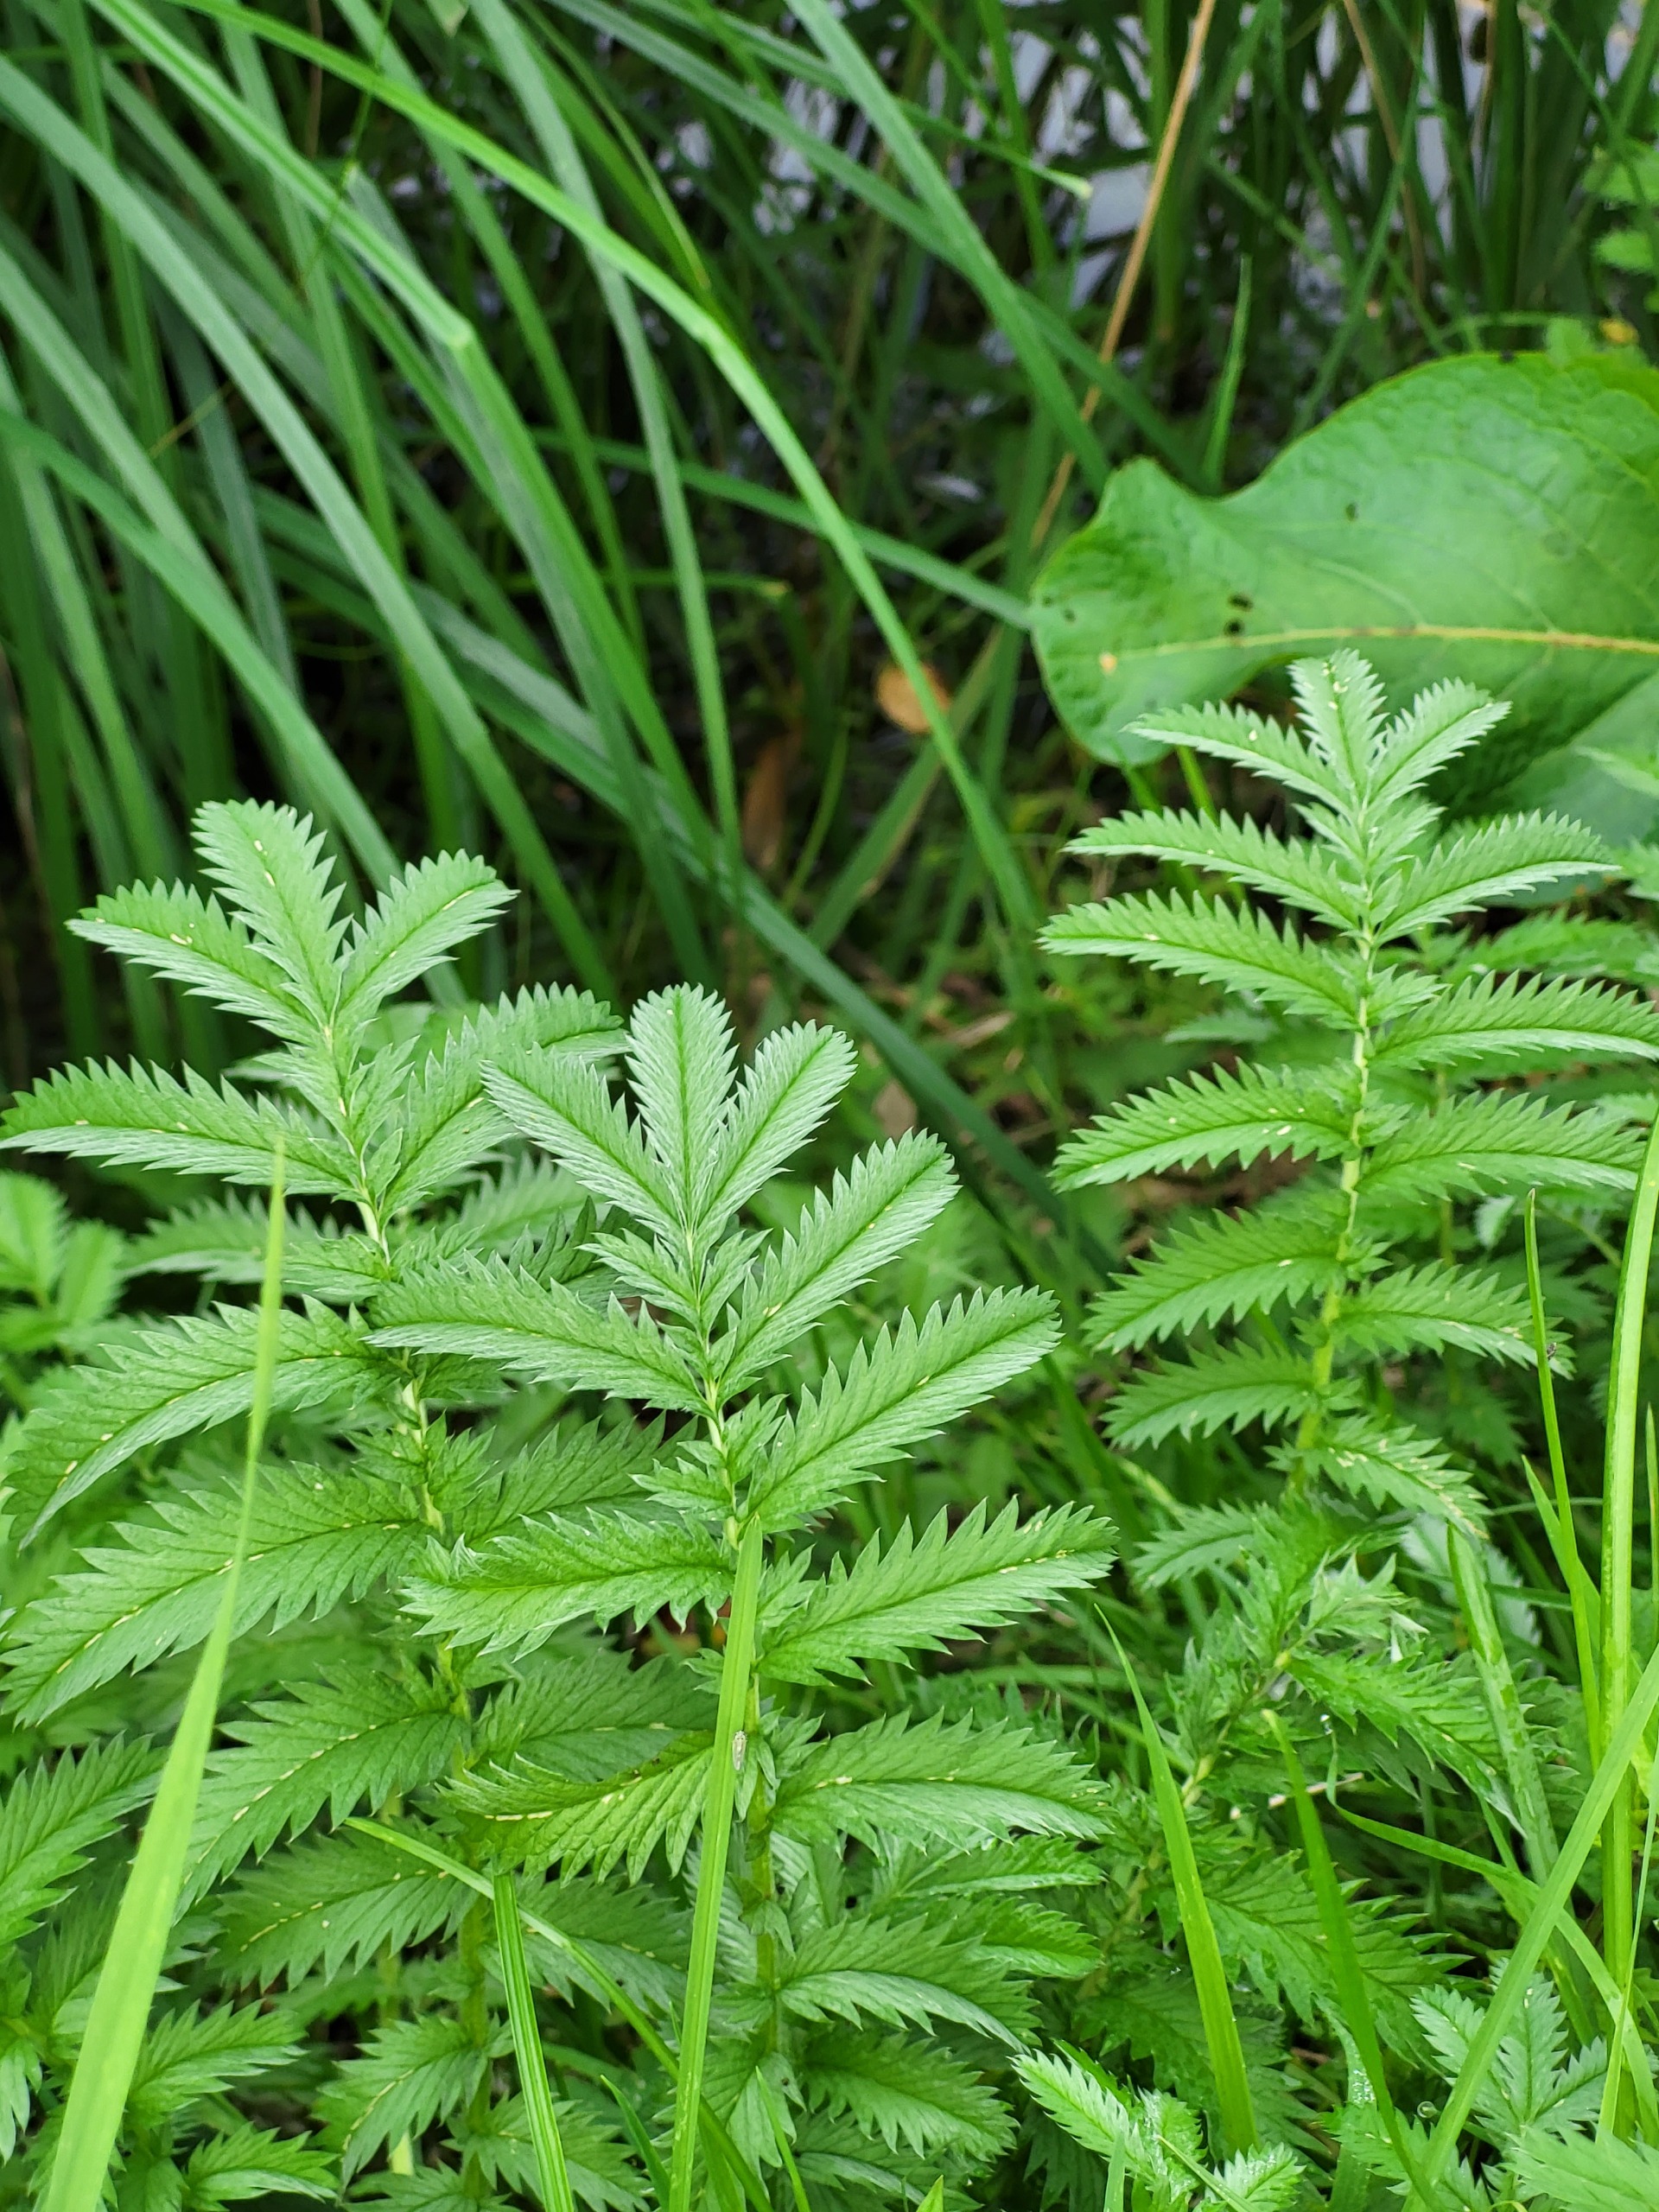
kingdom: Plantae
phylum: Tracheophyta
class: Magnoliopsida
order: Rosales
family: Rosaceae
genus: Argentina
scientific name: Argentina anserina
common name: Gåsepotentil
